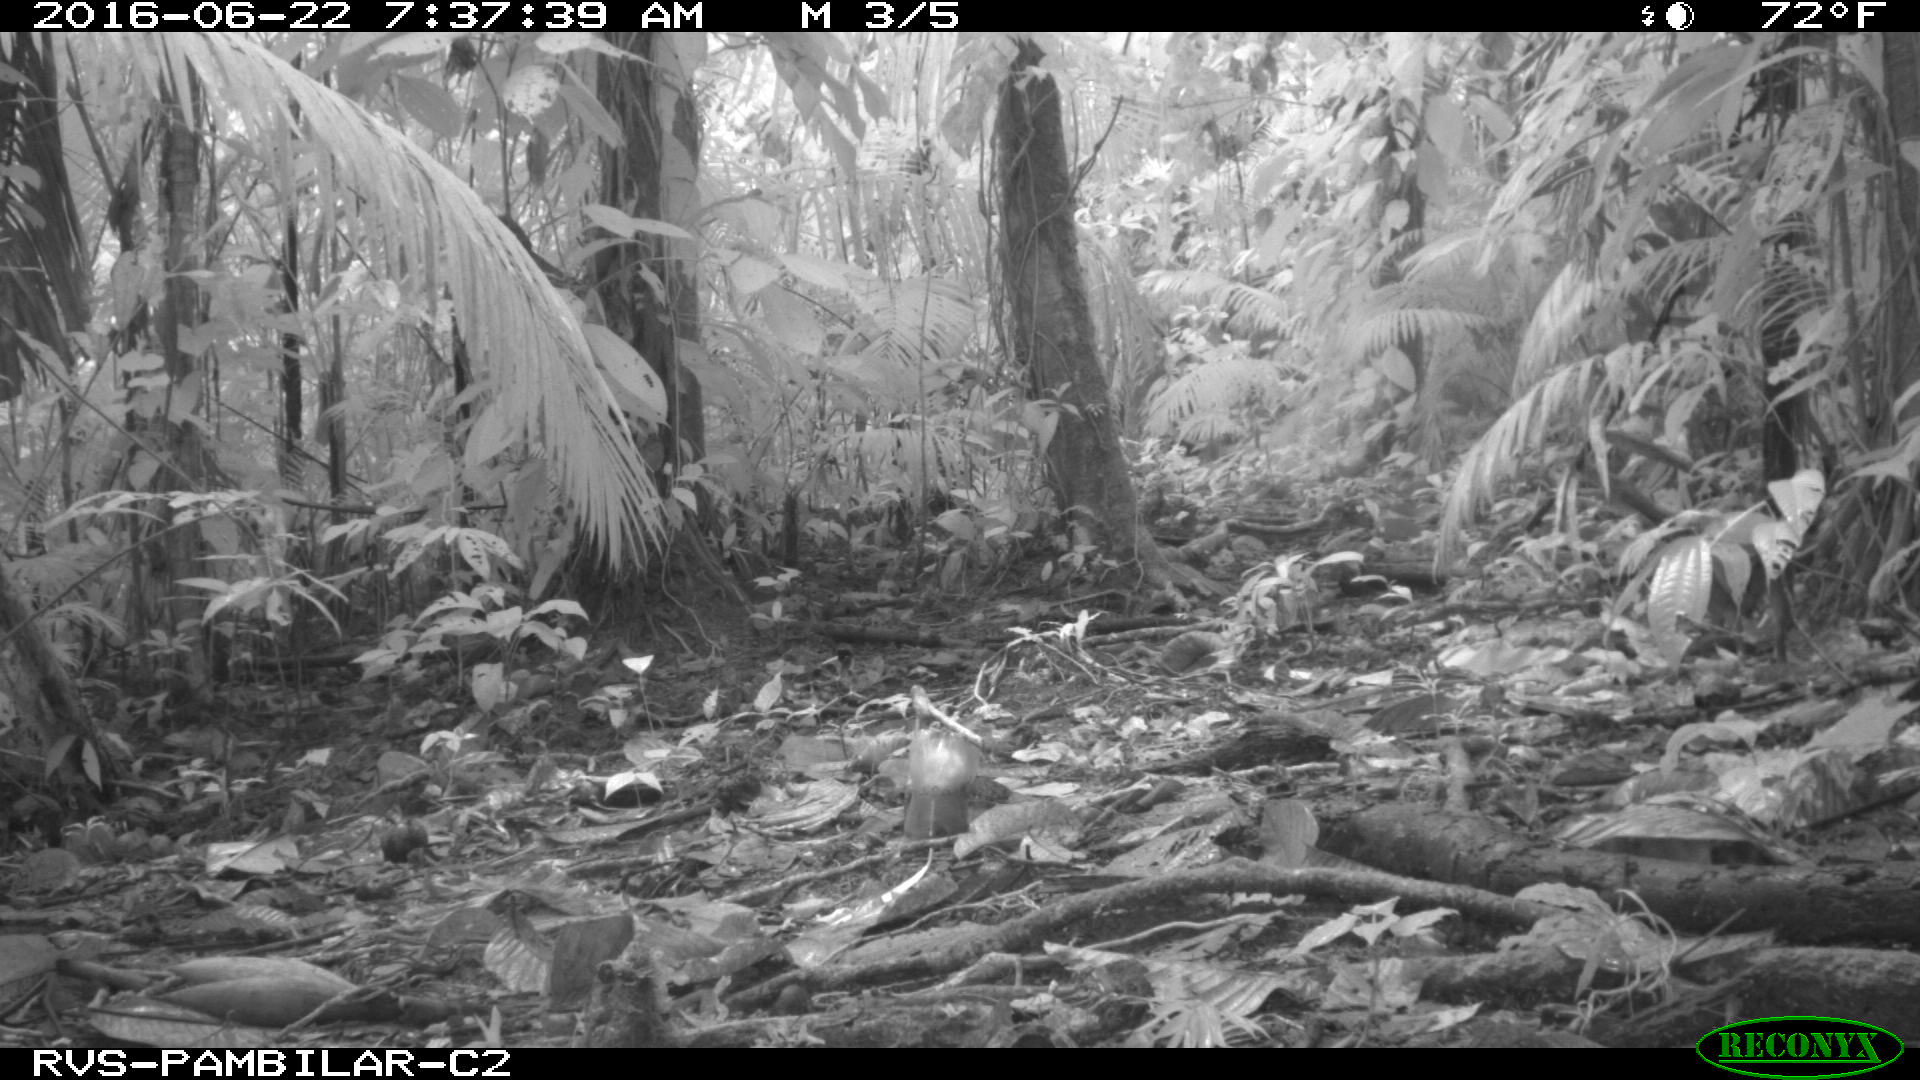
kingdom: Animalia
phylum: Chordata
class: Mammalia
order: Rodentia
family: Dasyproctidae
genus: Dasyprocta
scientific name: Dasyprocta punctata
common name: Central american agouti
